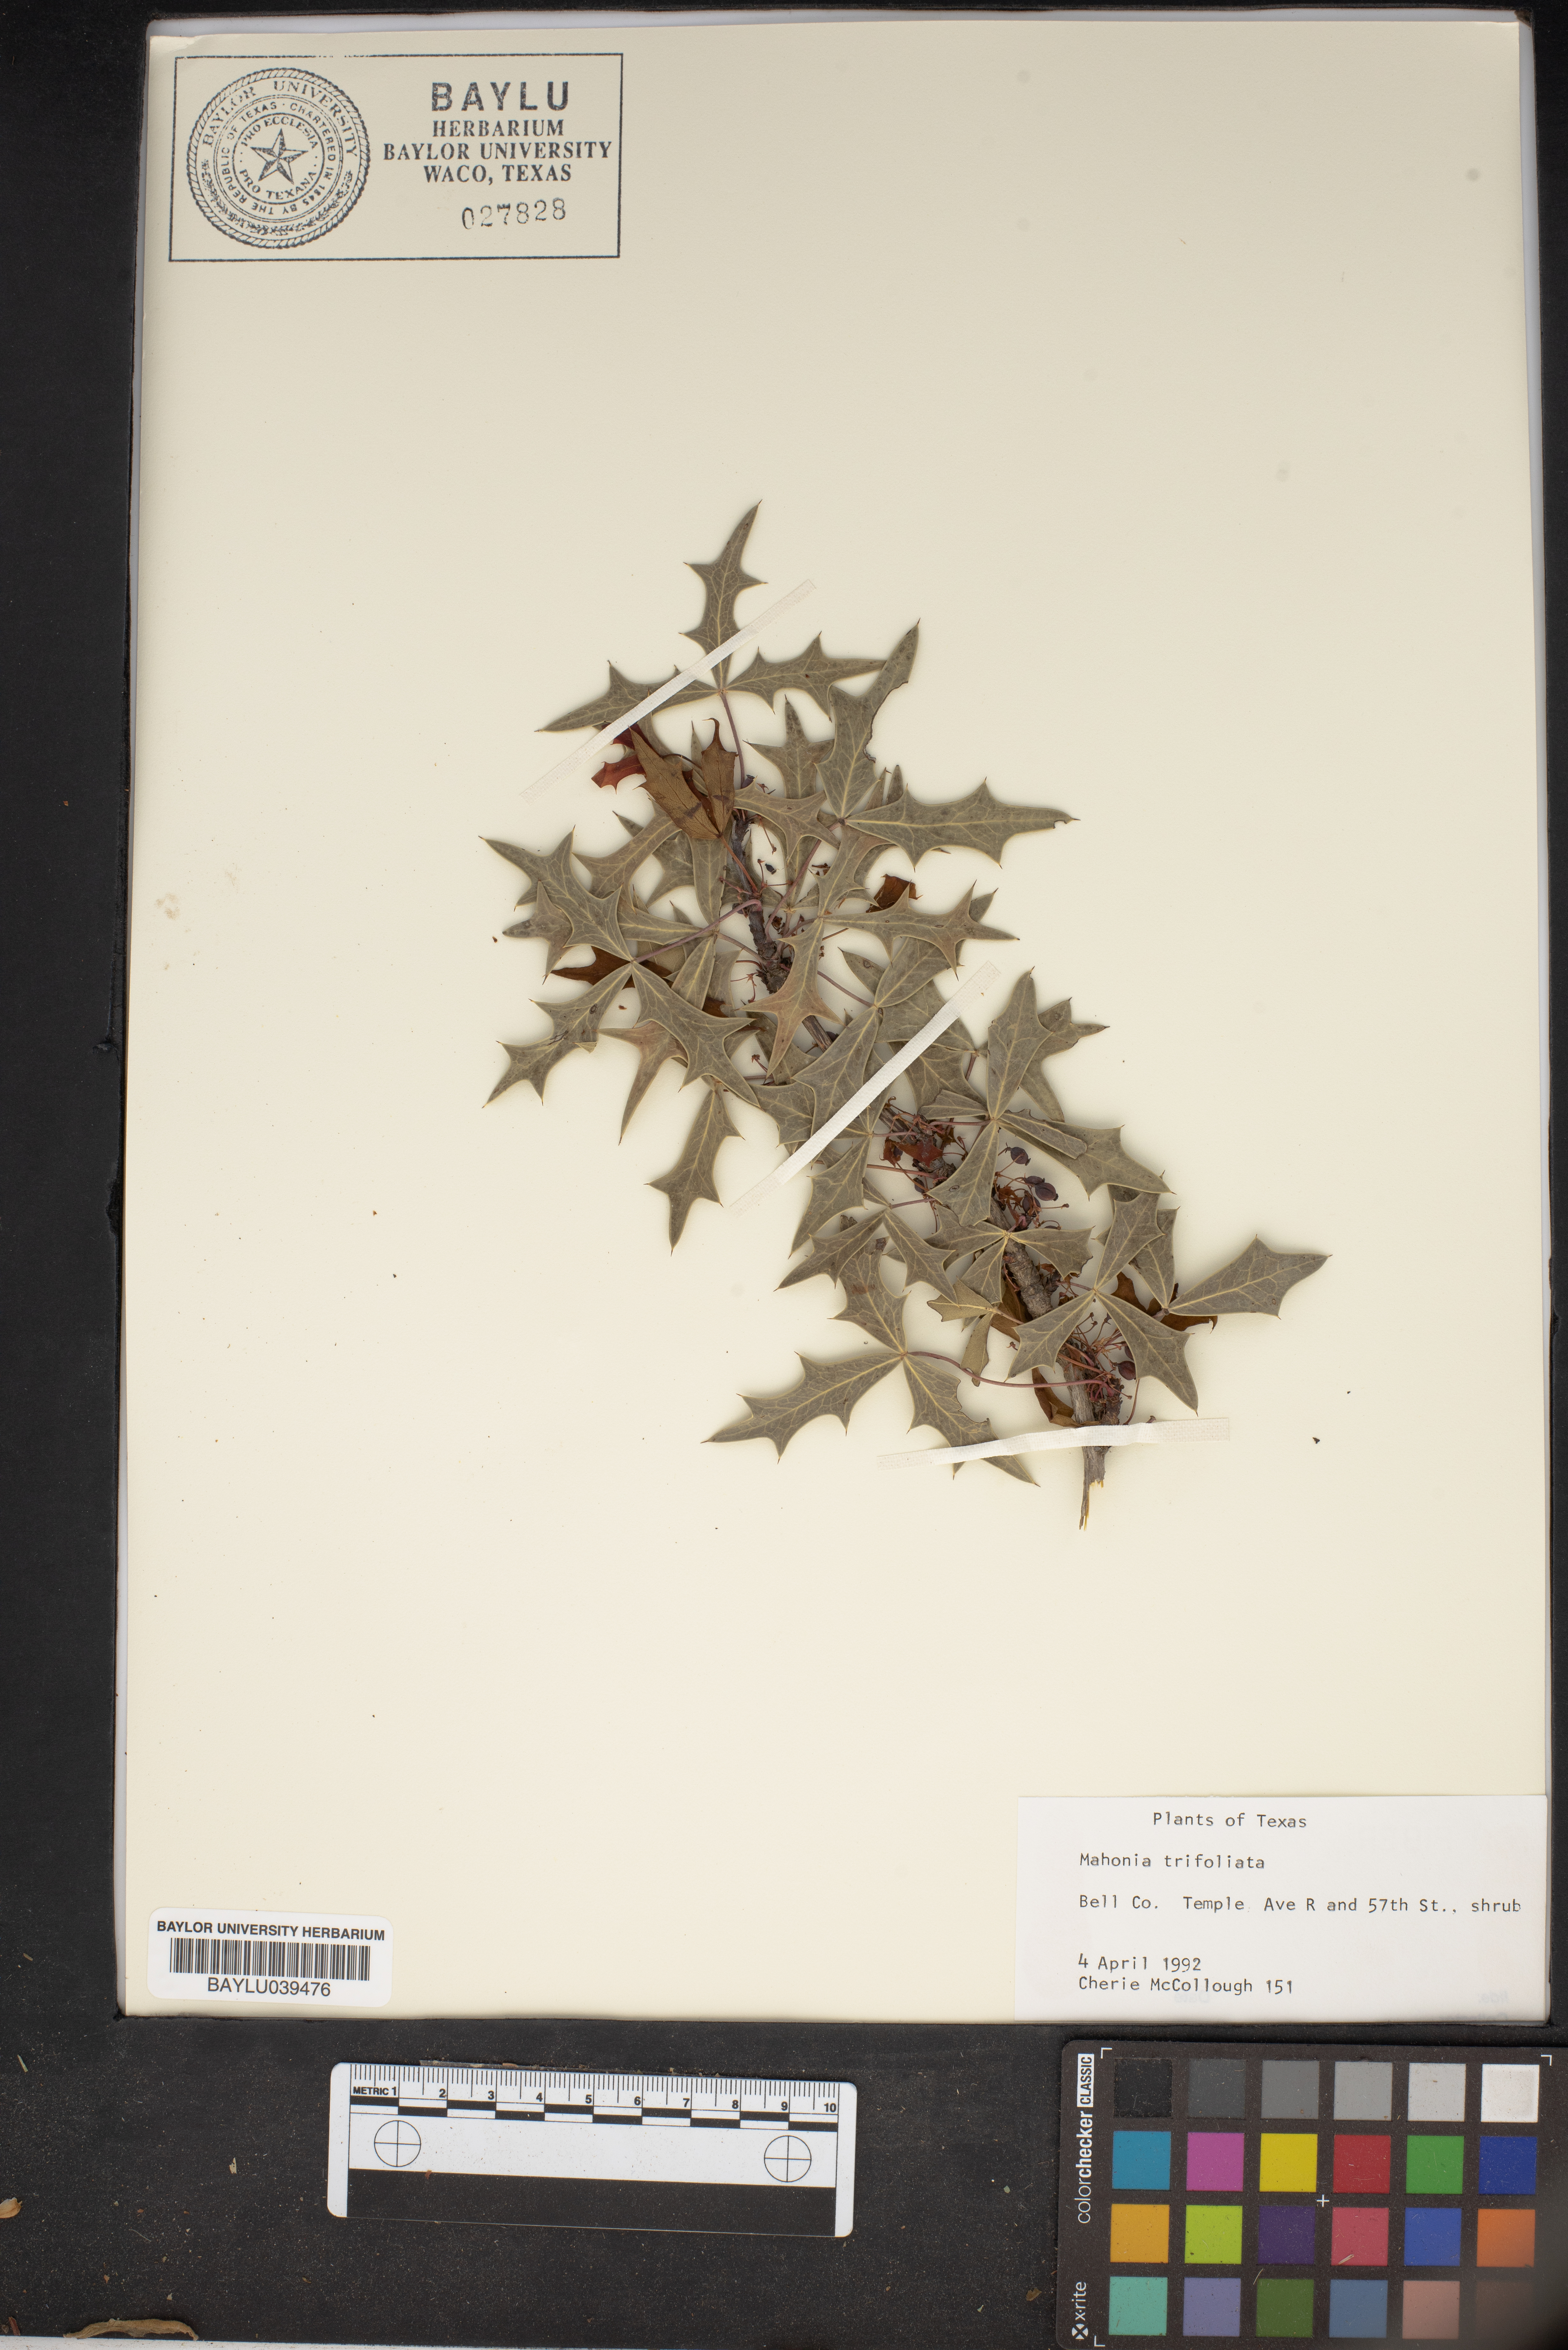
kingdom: Plantae
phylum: Tracheophyta
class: Magnoliopsida
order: Ranunculales
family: Berberidaceae
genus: Mahonia
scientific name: Mahonia trifolia
